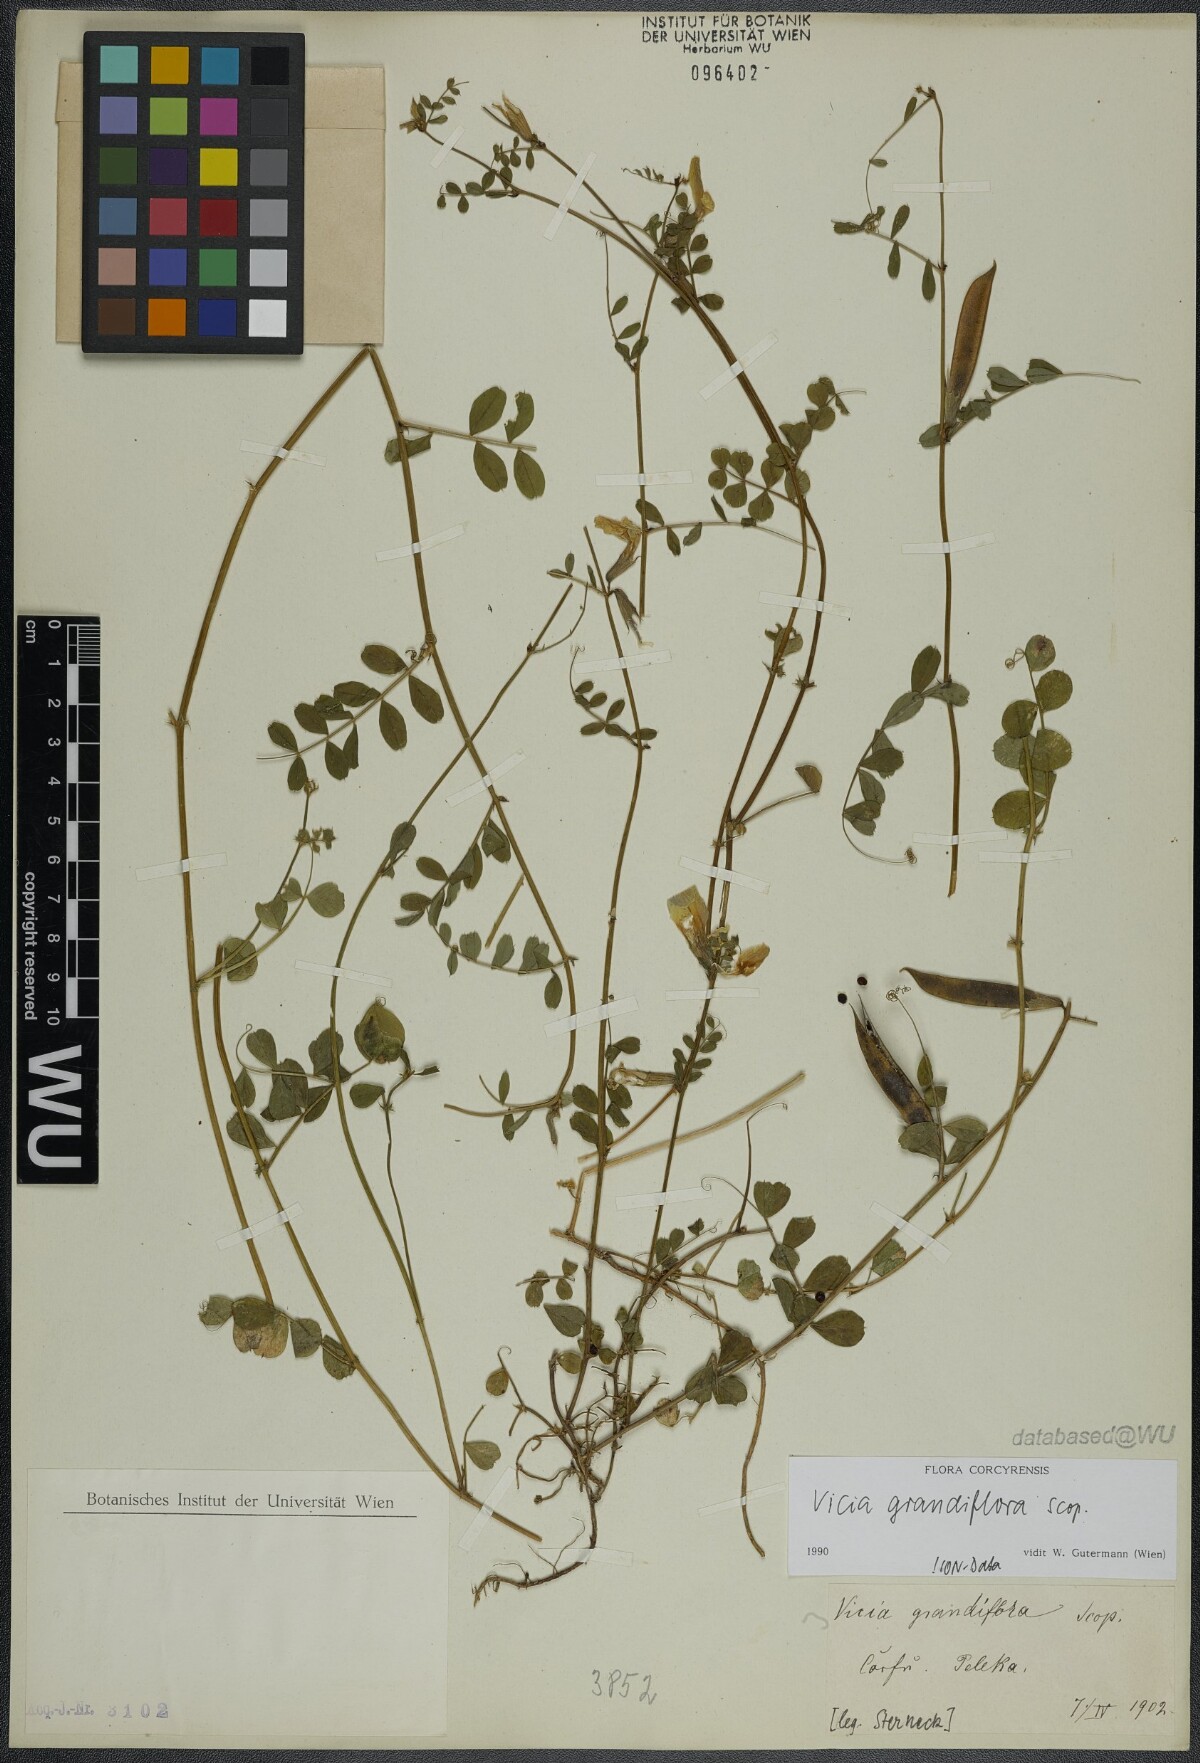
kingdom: Plantae
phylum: Tracheophyta
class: Magnoliopsida
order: Fabales
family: Fabaceae
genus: Vicia
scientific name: Vicia grandiflora
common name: Large yellow vetch
